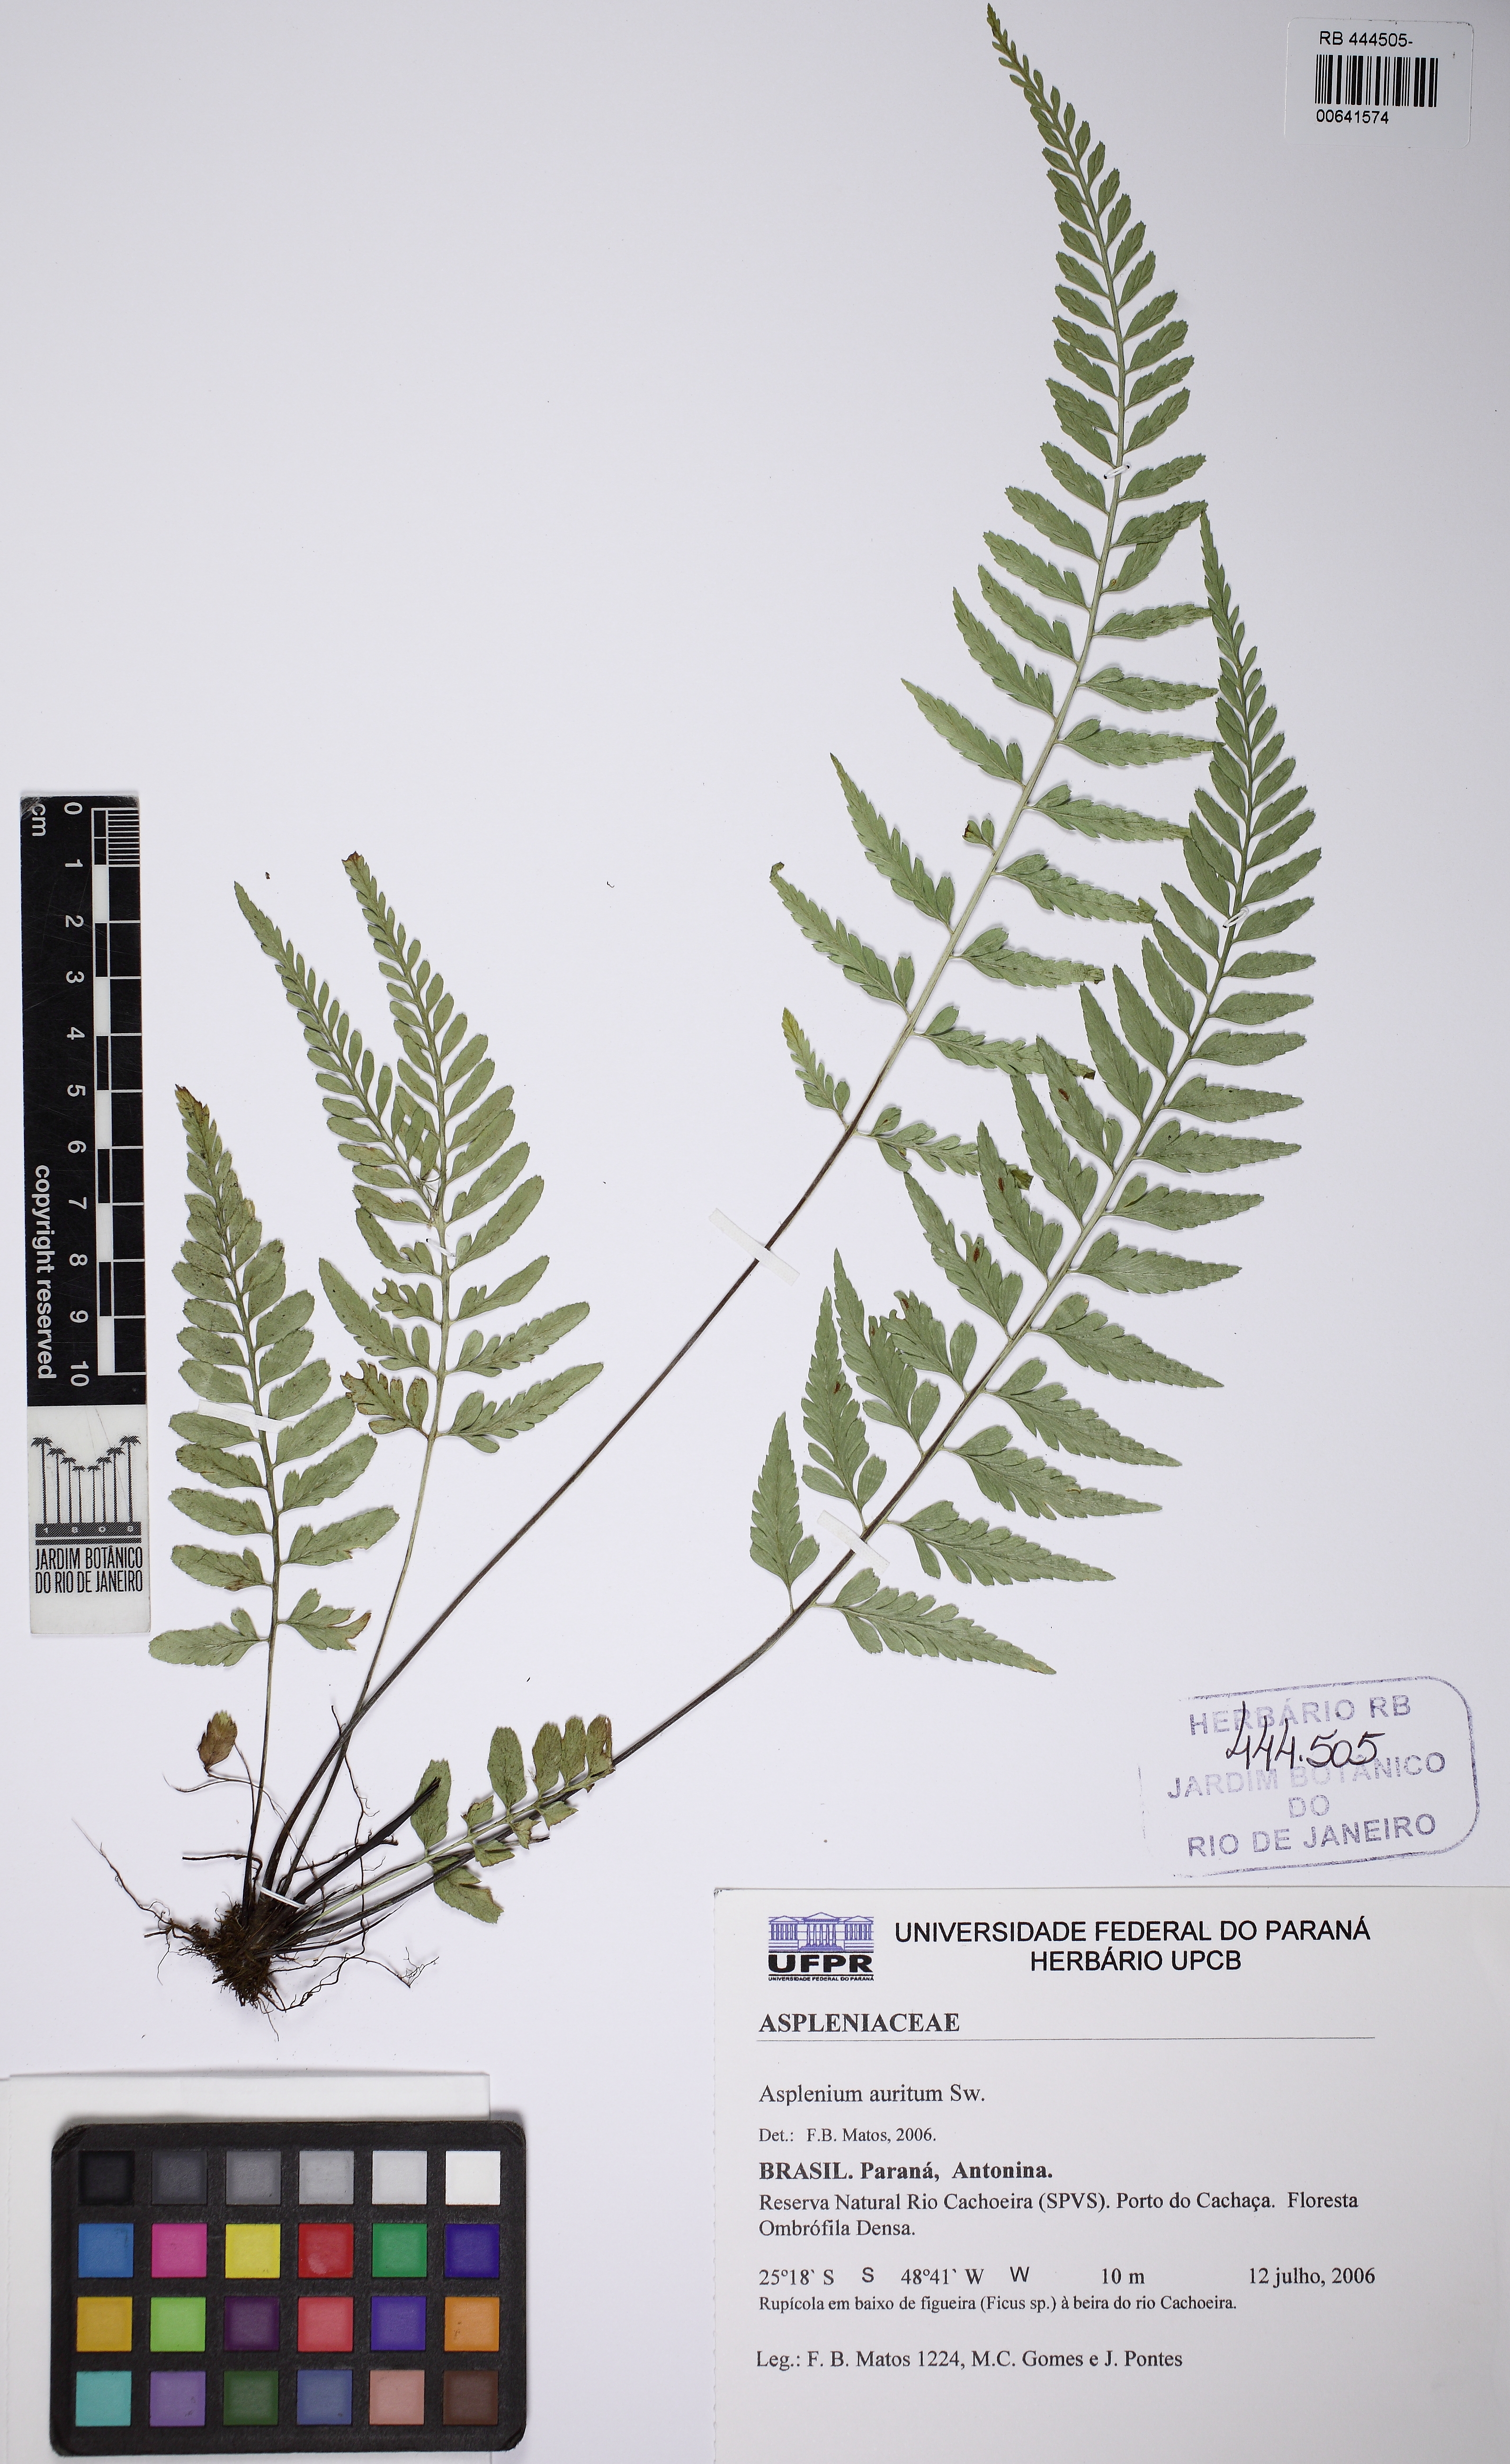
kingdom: Plantae
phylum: Tracheophyta
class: Polypodiopsida
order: Polypodiales
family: Aspleniaceae
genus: Asplenium
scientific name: Asplenium auritum
